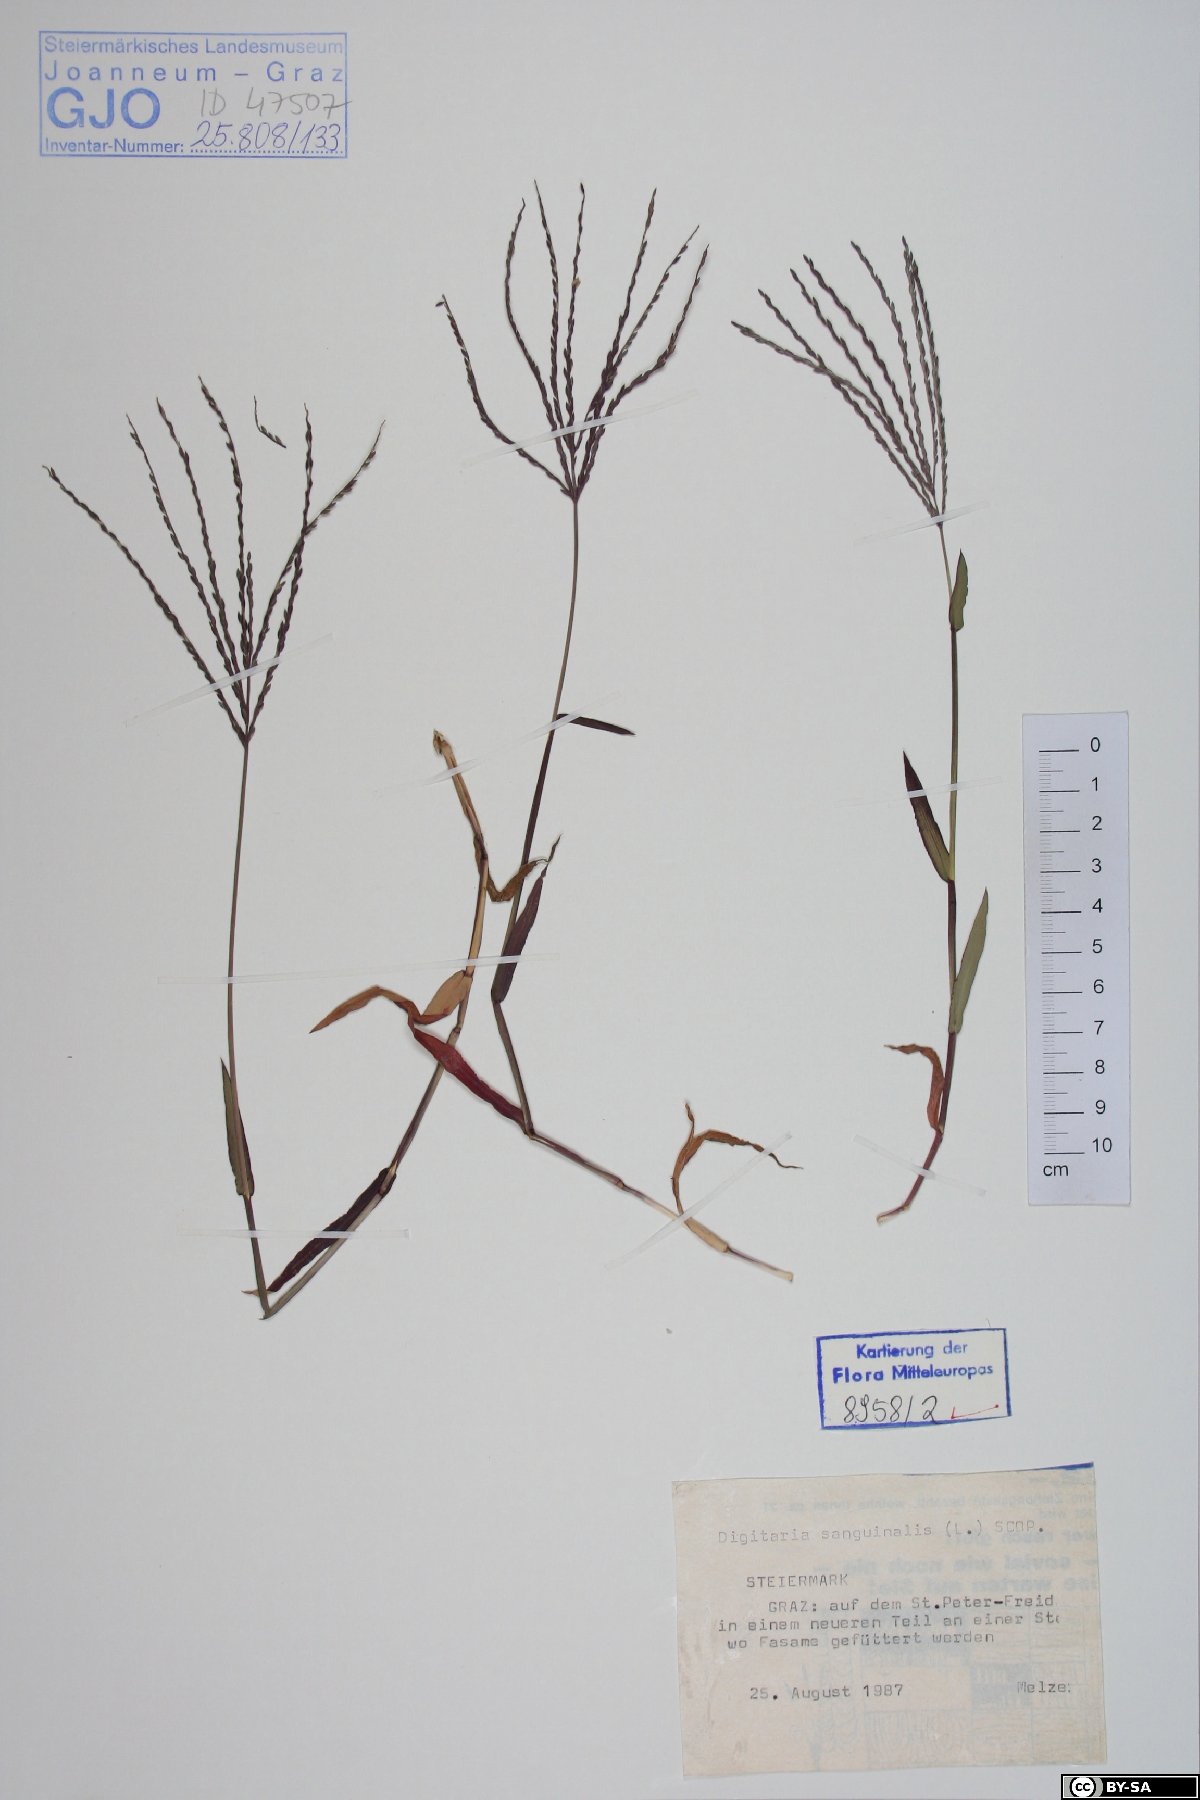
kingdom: Plantae
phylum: Tracheophyta
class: Liliopsida
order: Poales
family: Poaceae
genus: Digitaria
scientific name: Digitaria sanguinalis
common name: Hairy crabgrass
